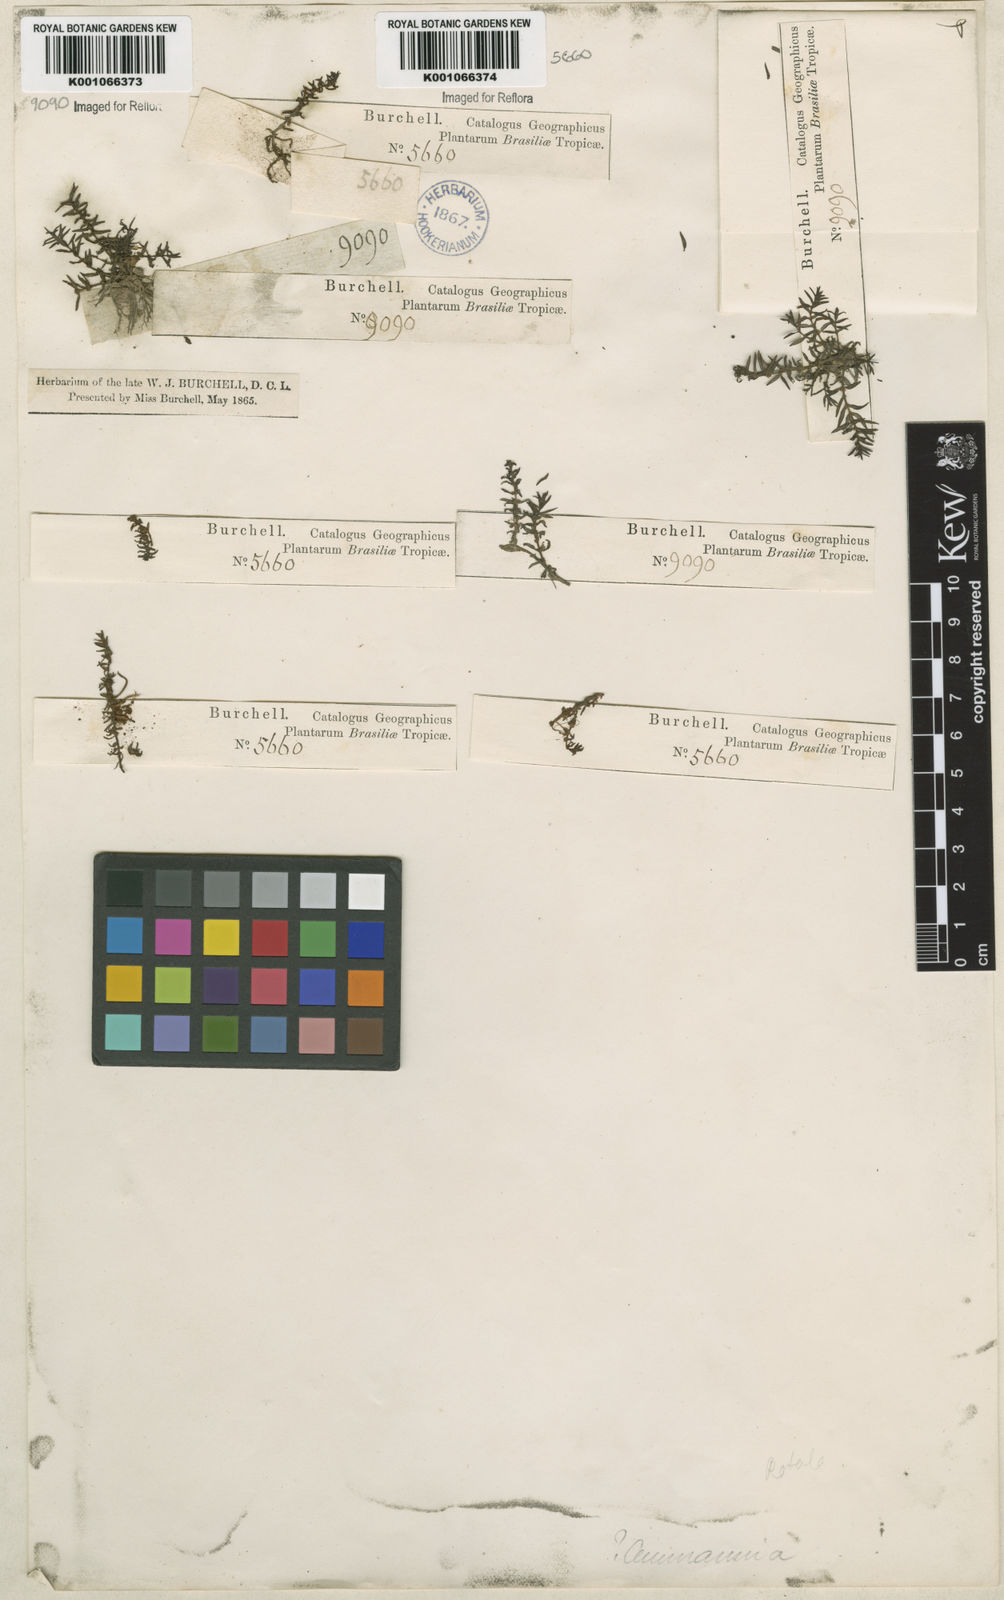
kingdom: Plantae
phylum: Tracheophyta
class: Magnoliopsida
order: Myrtales
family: Lythraceae
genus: Rotala
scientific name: Rotala mexicana
